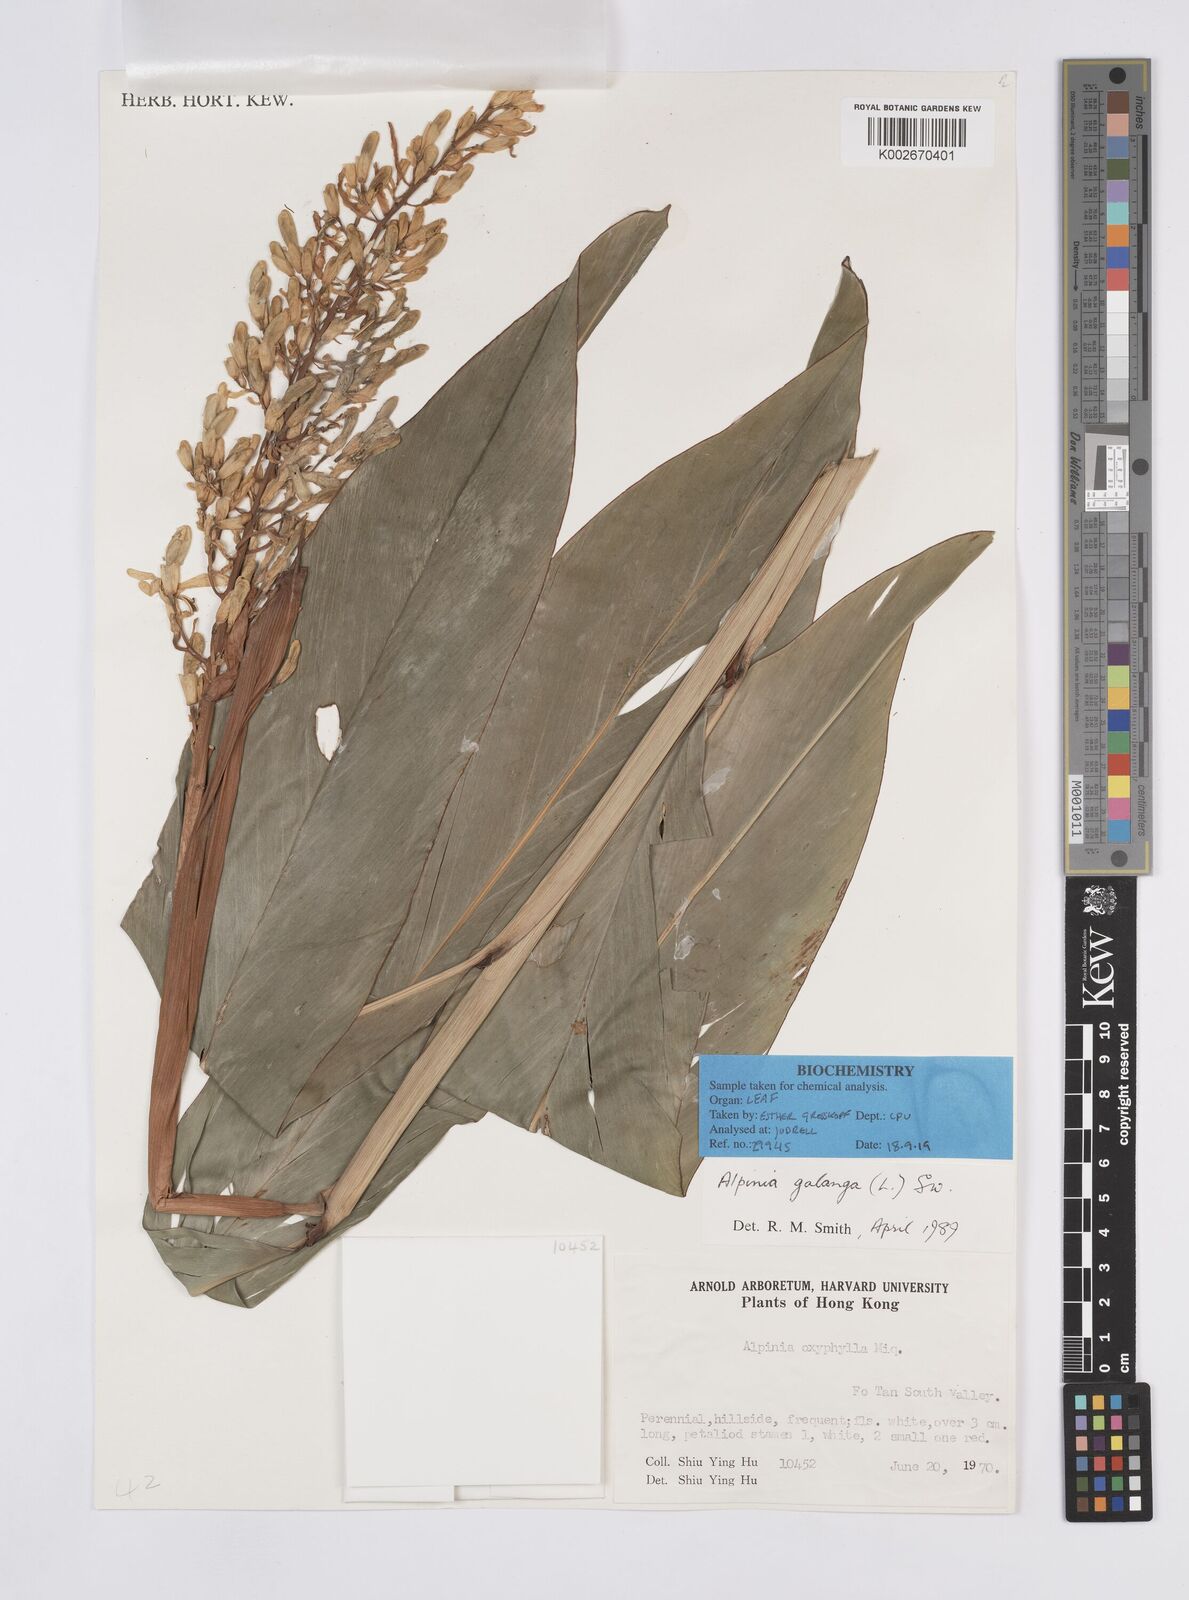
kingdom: Plantae
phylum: Tracheophyta
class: Liliopsida
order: Zingiberales
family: Zingiberaceae
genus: Alpinia
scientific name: Alpinia galanga
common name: Siamese-ginger
